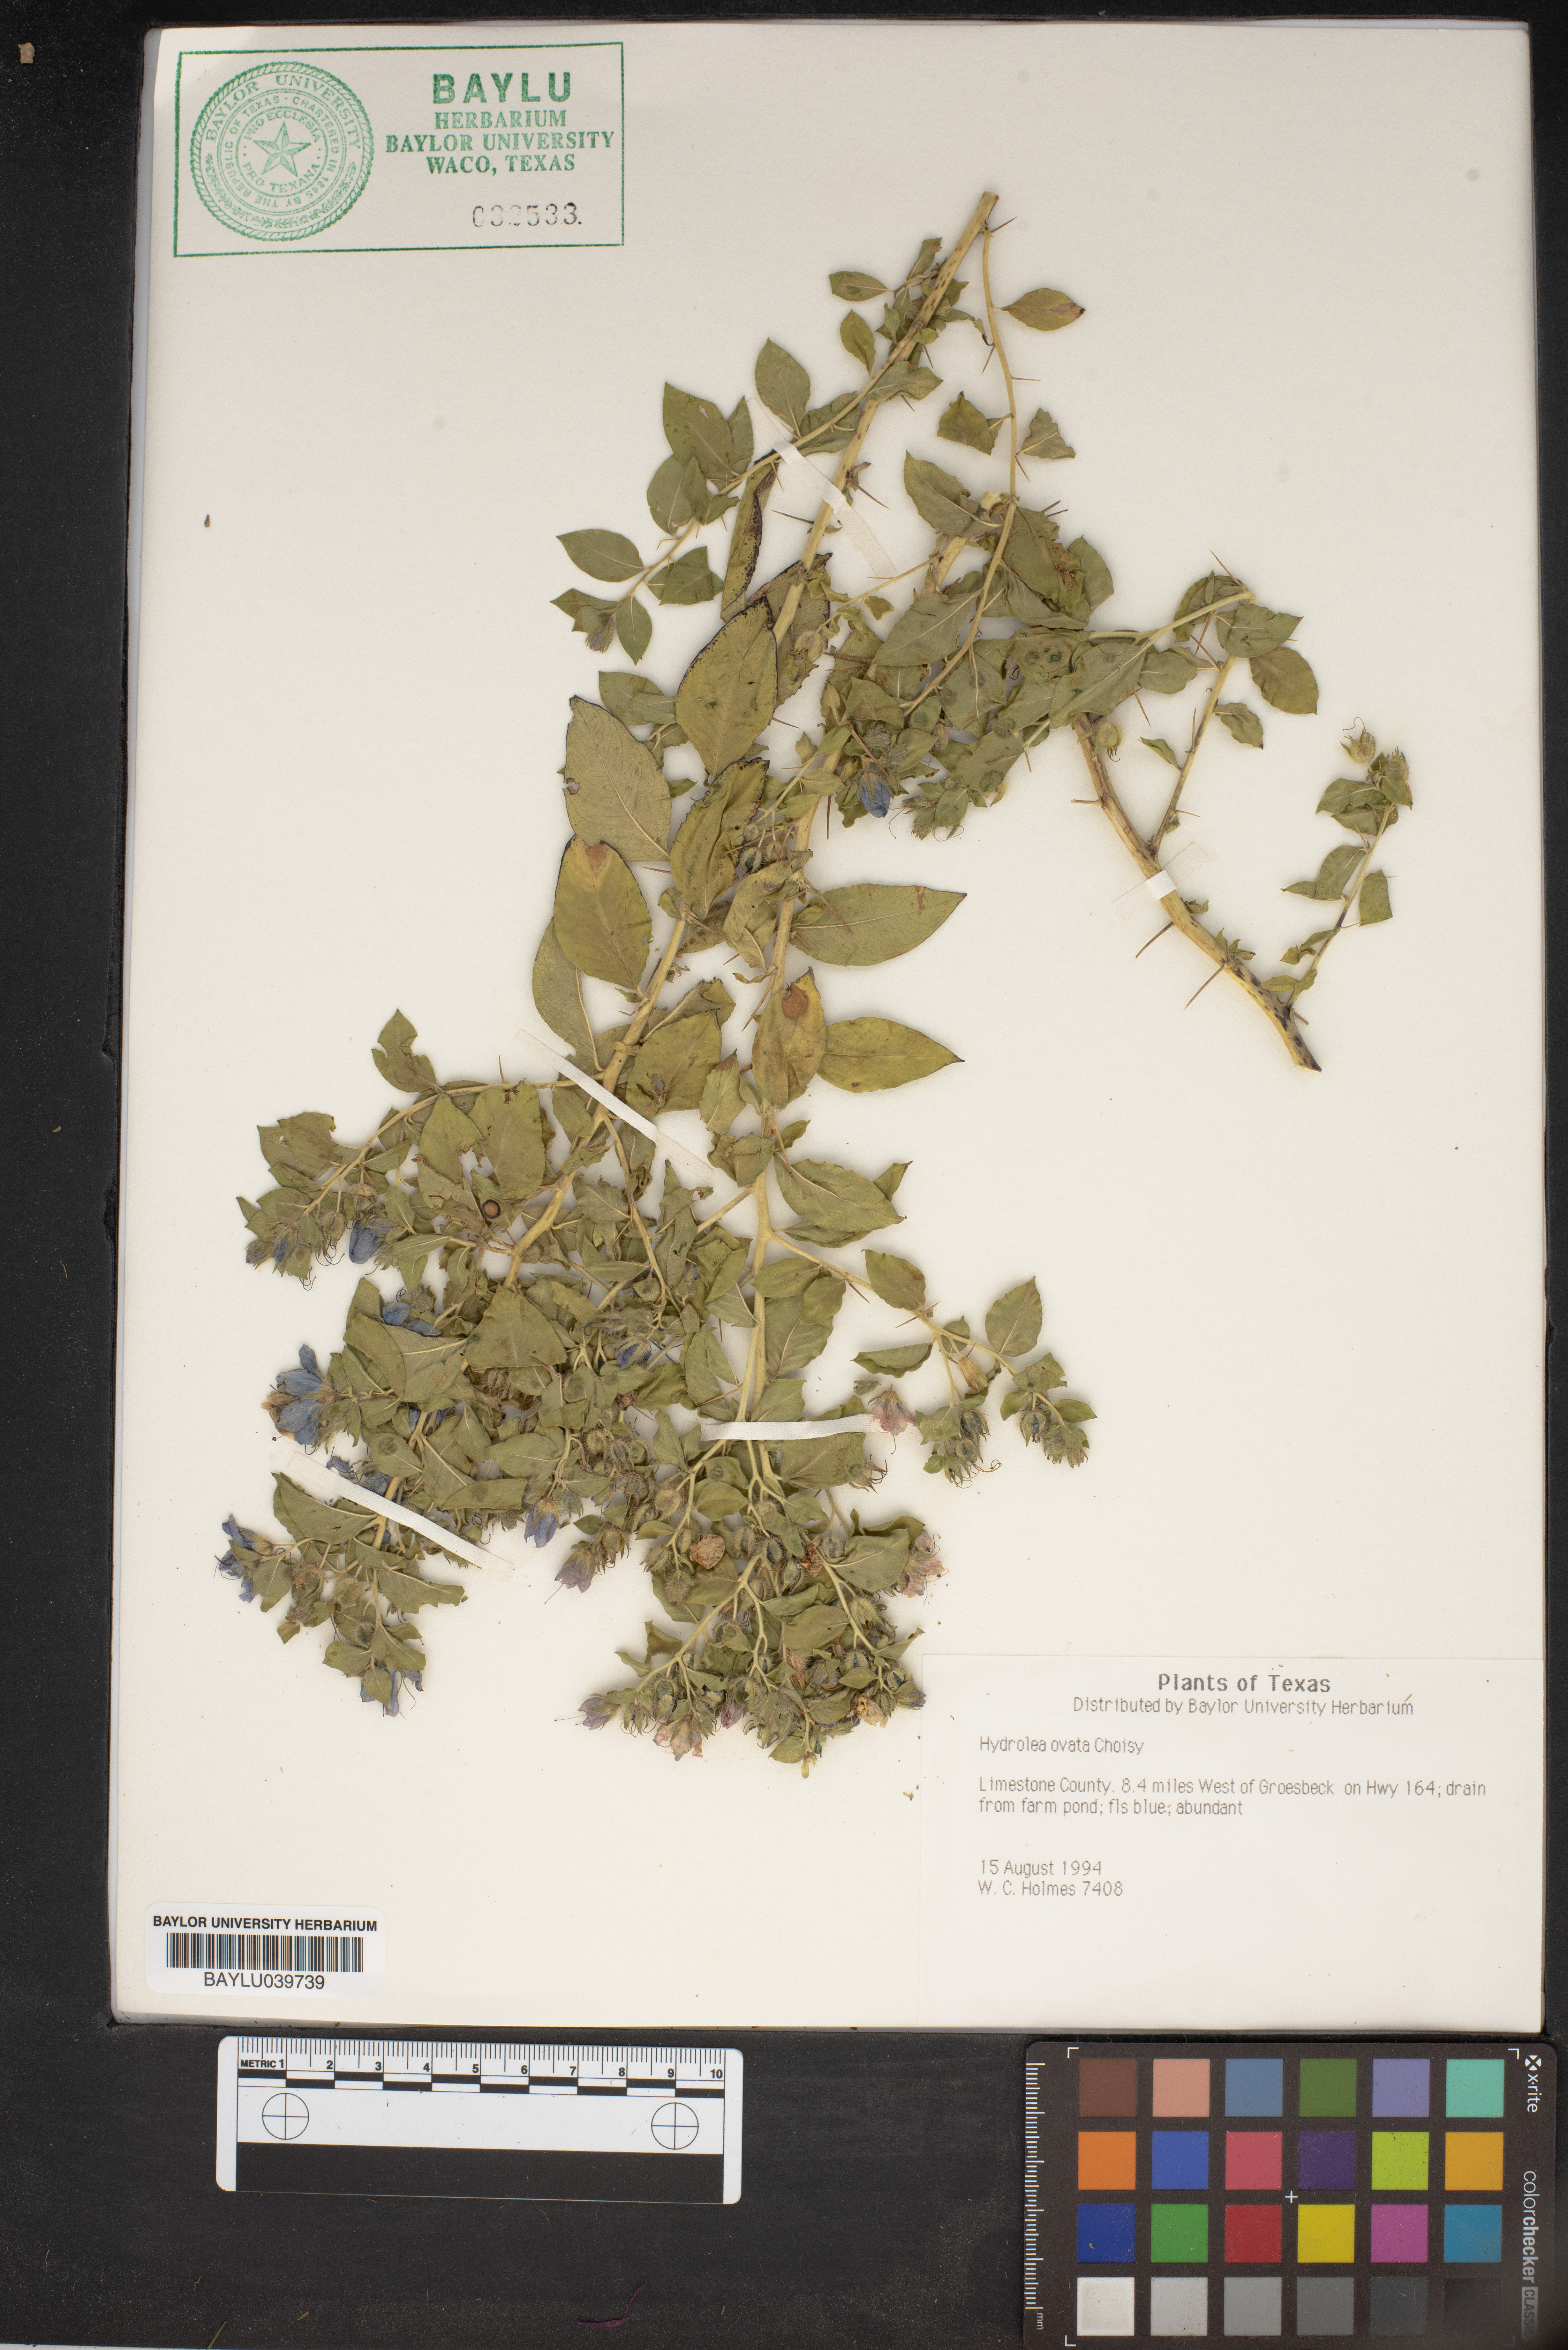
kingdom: Plantae
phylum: Tracheophyta
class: Magnoliopsida
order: Solanales
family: Hydroleaceae
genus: Hydrolea
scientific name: Hydrolea ovata
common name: Ovate false fiddleleaf
